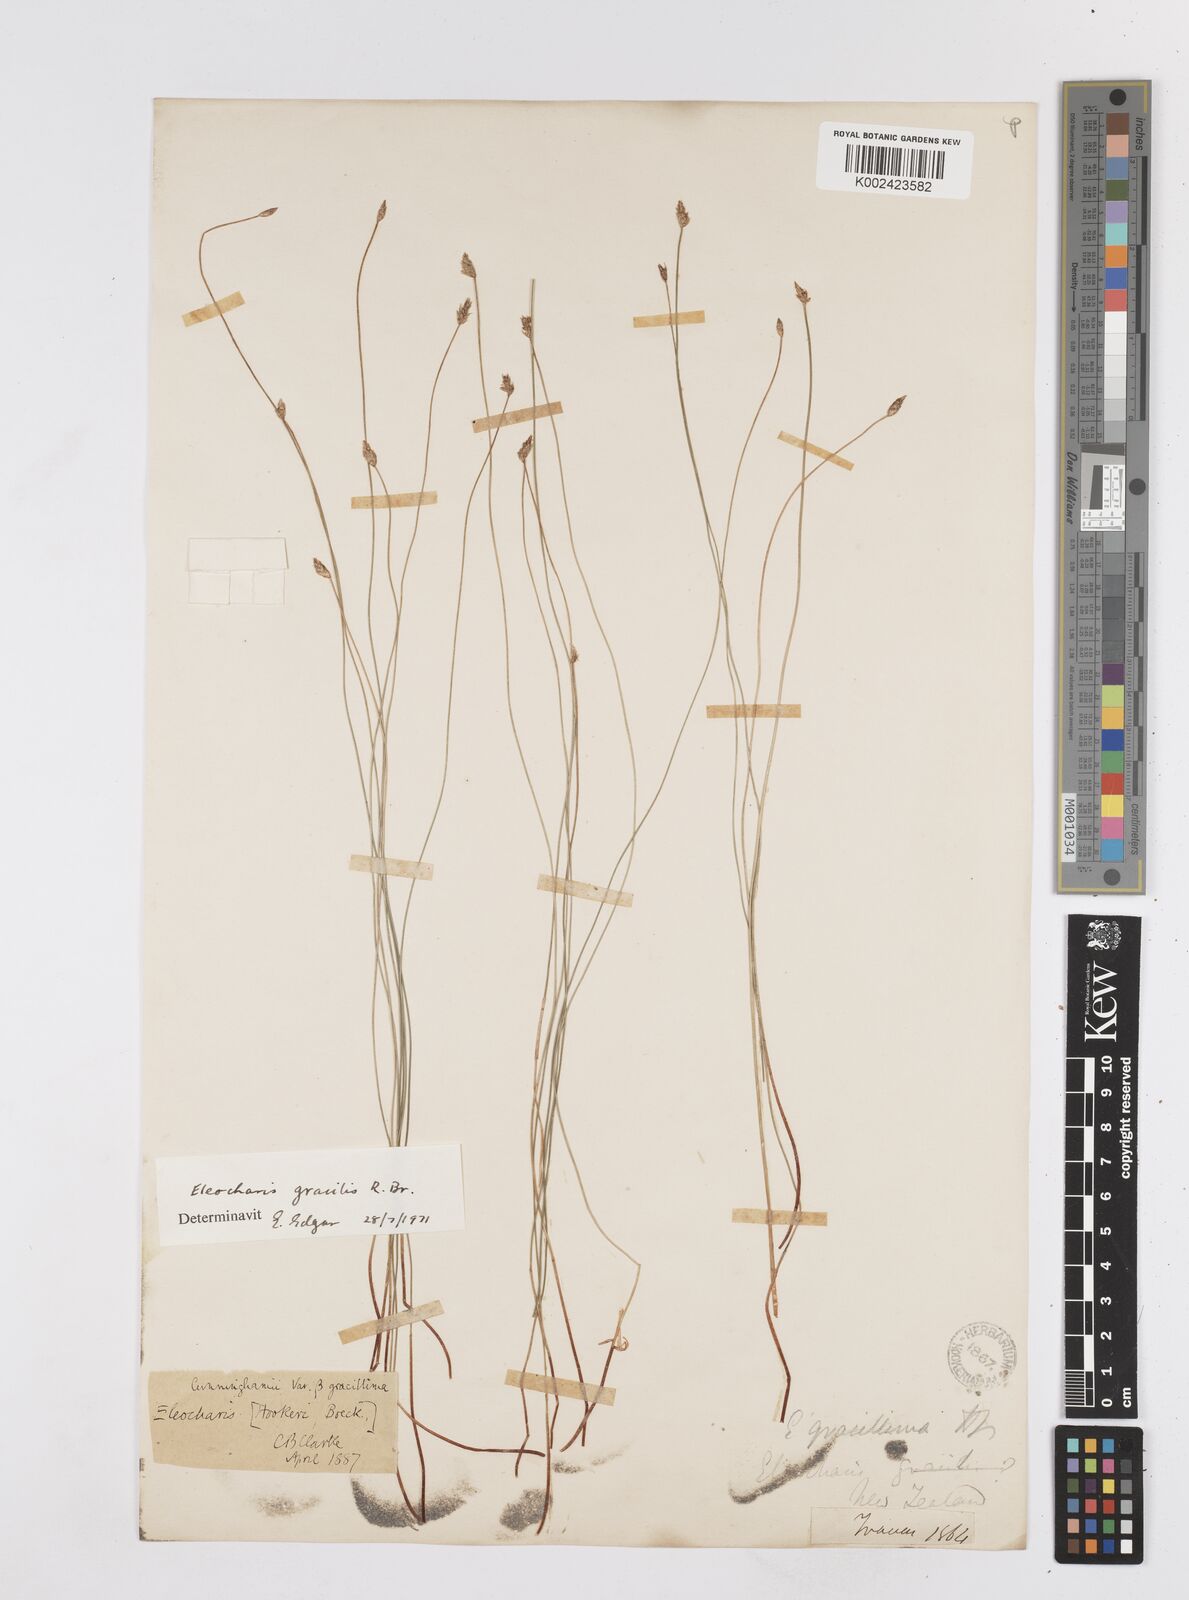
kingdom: Plantae
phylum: Tracheophyta
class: Liliopsida
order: Poales
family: Cyperaceae
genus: Eleocharis
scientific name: Eleocharis gracilis
